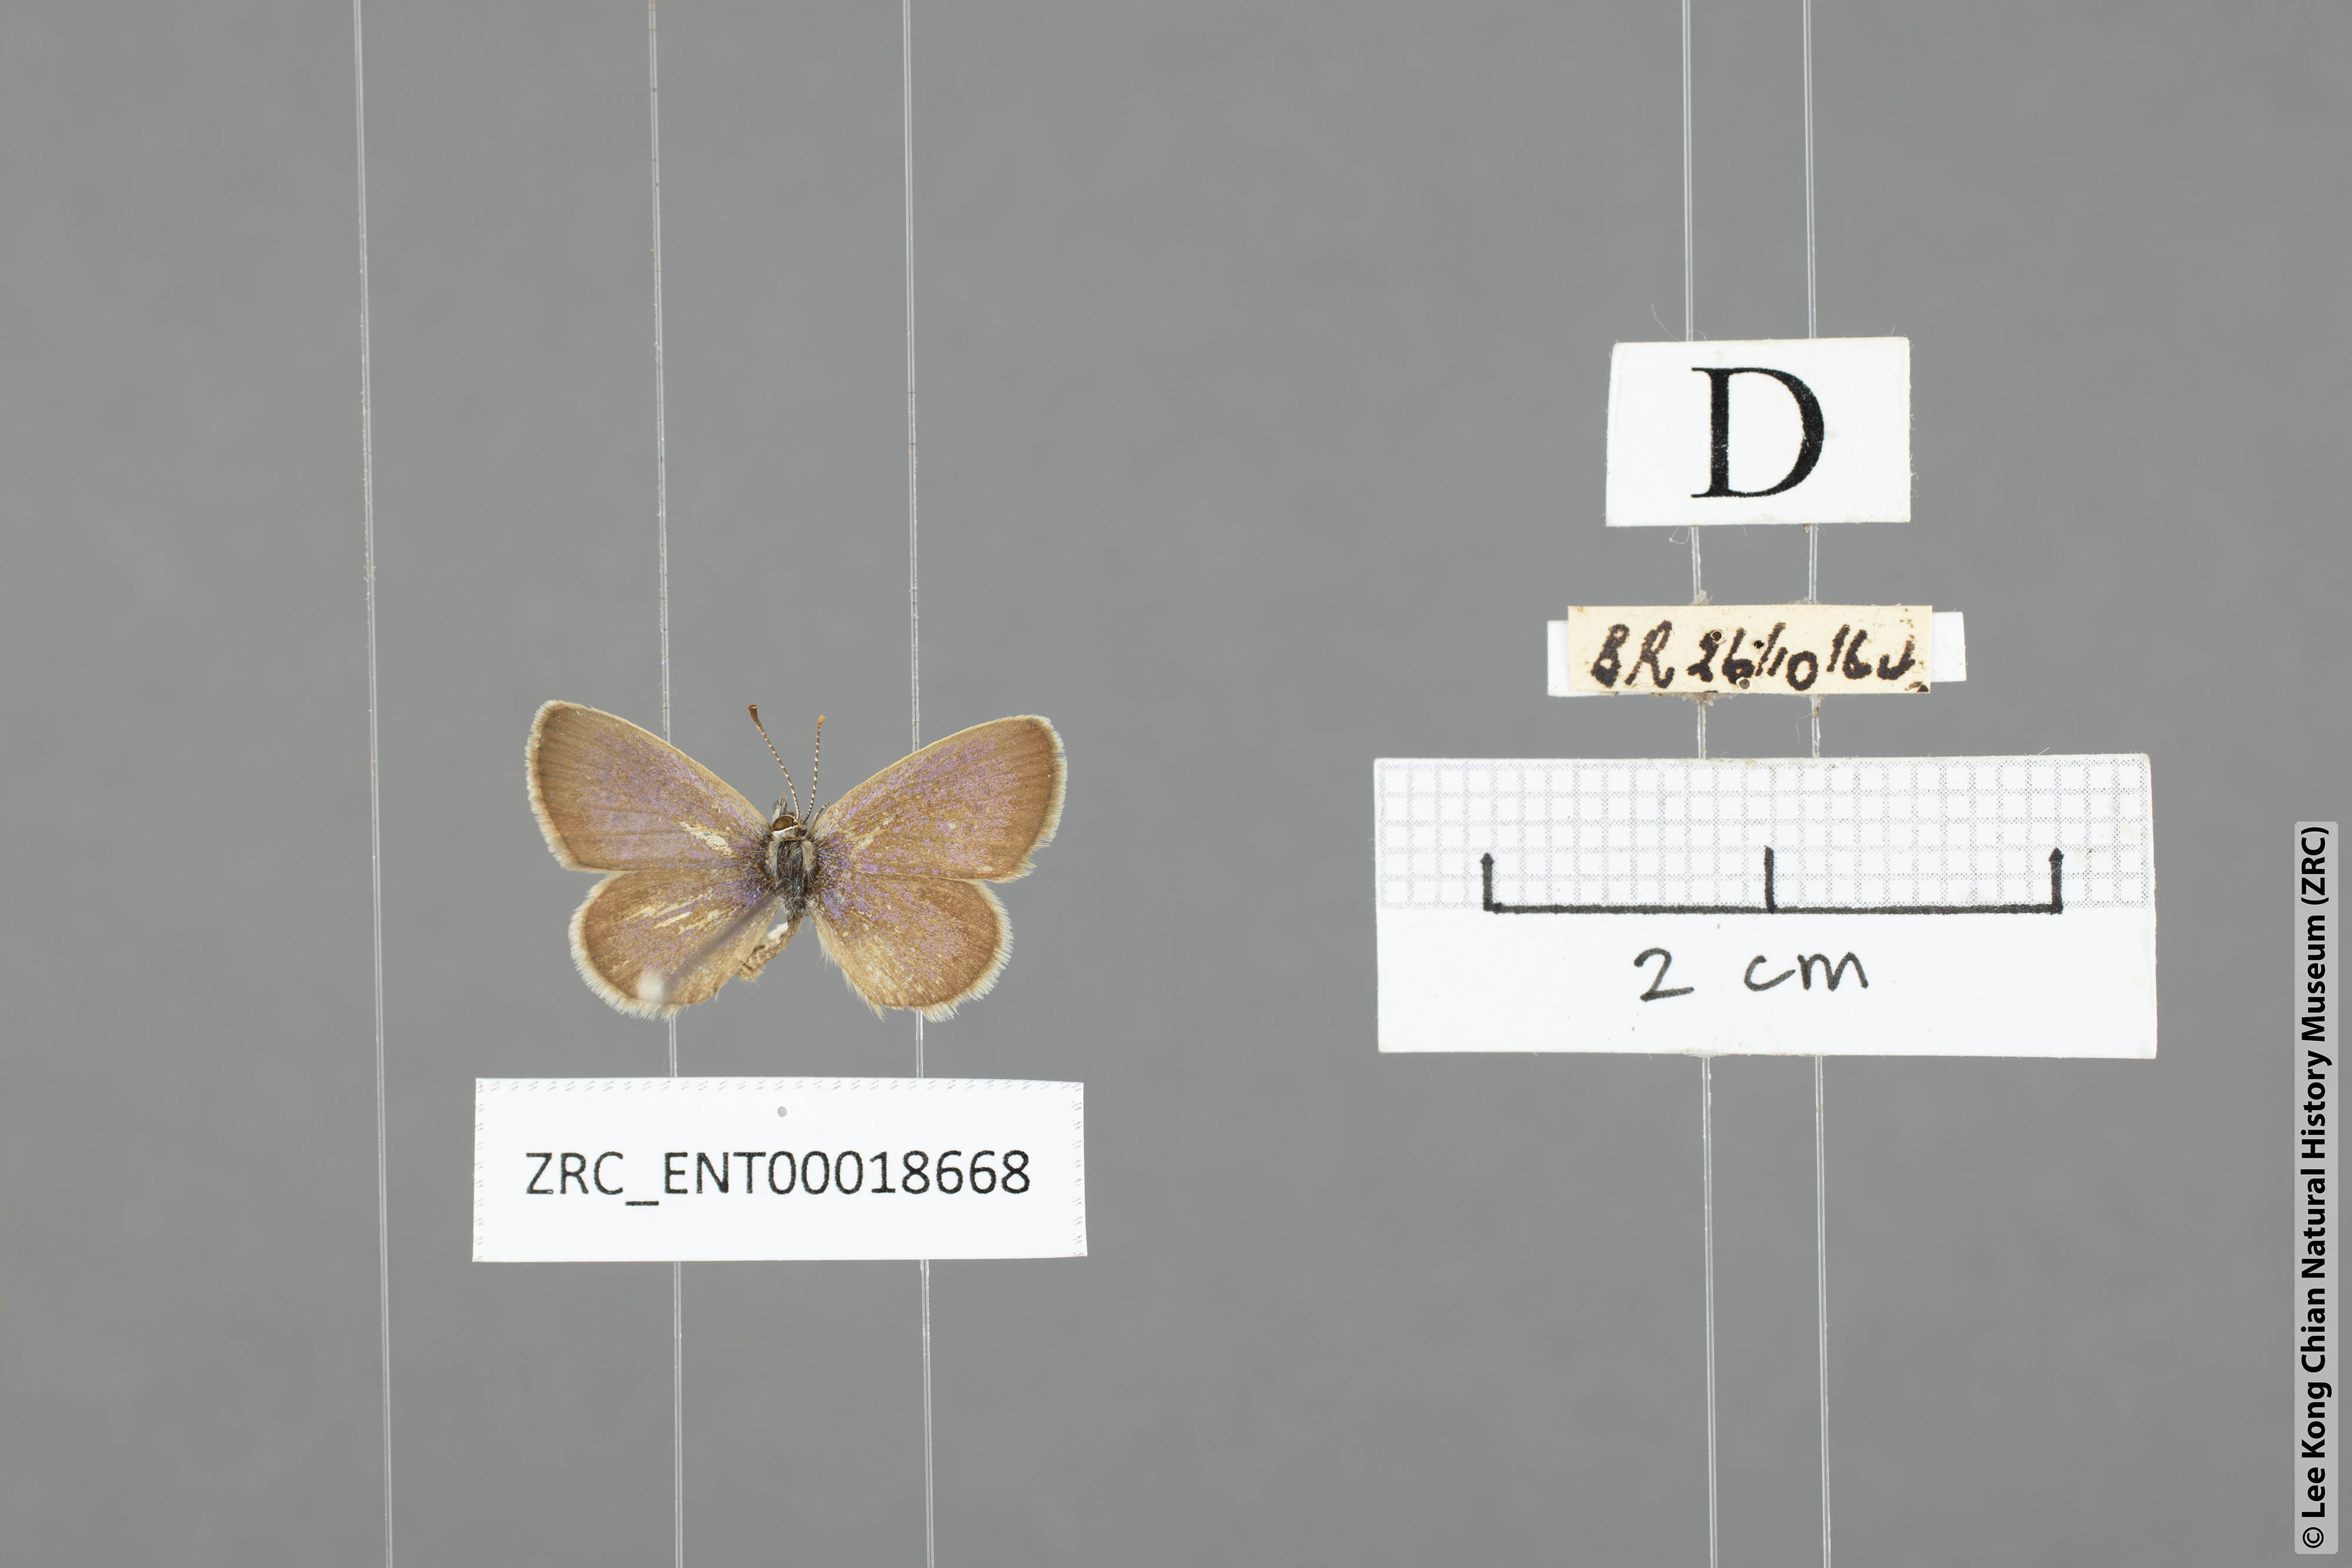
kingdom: Animalia
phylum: Arthropoda
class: Insecta
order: Lepidoptera
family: Lycaenidae
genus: Zizeeria
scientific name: Zizeeria karsandra
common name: Dark grass blue
